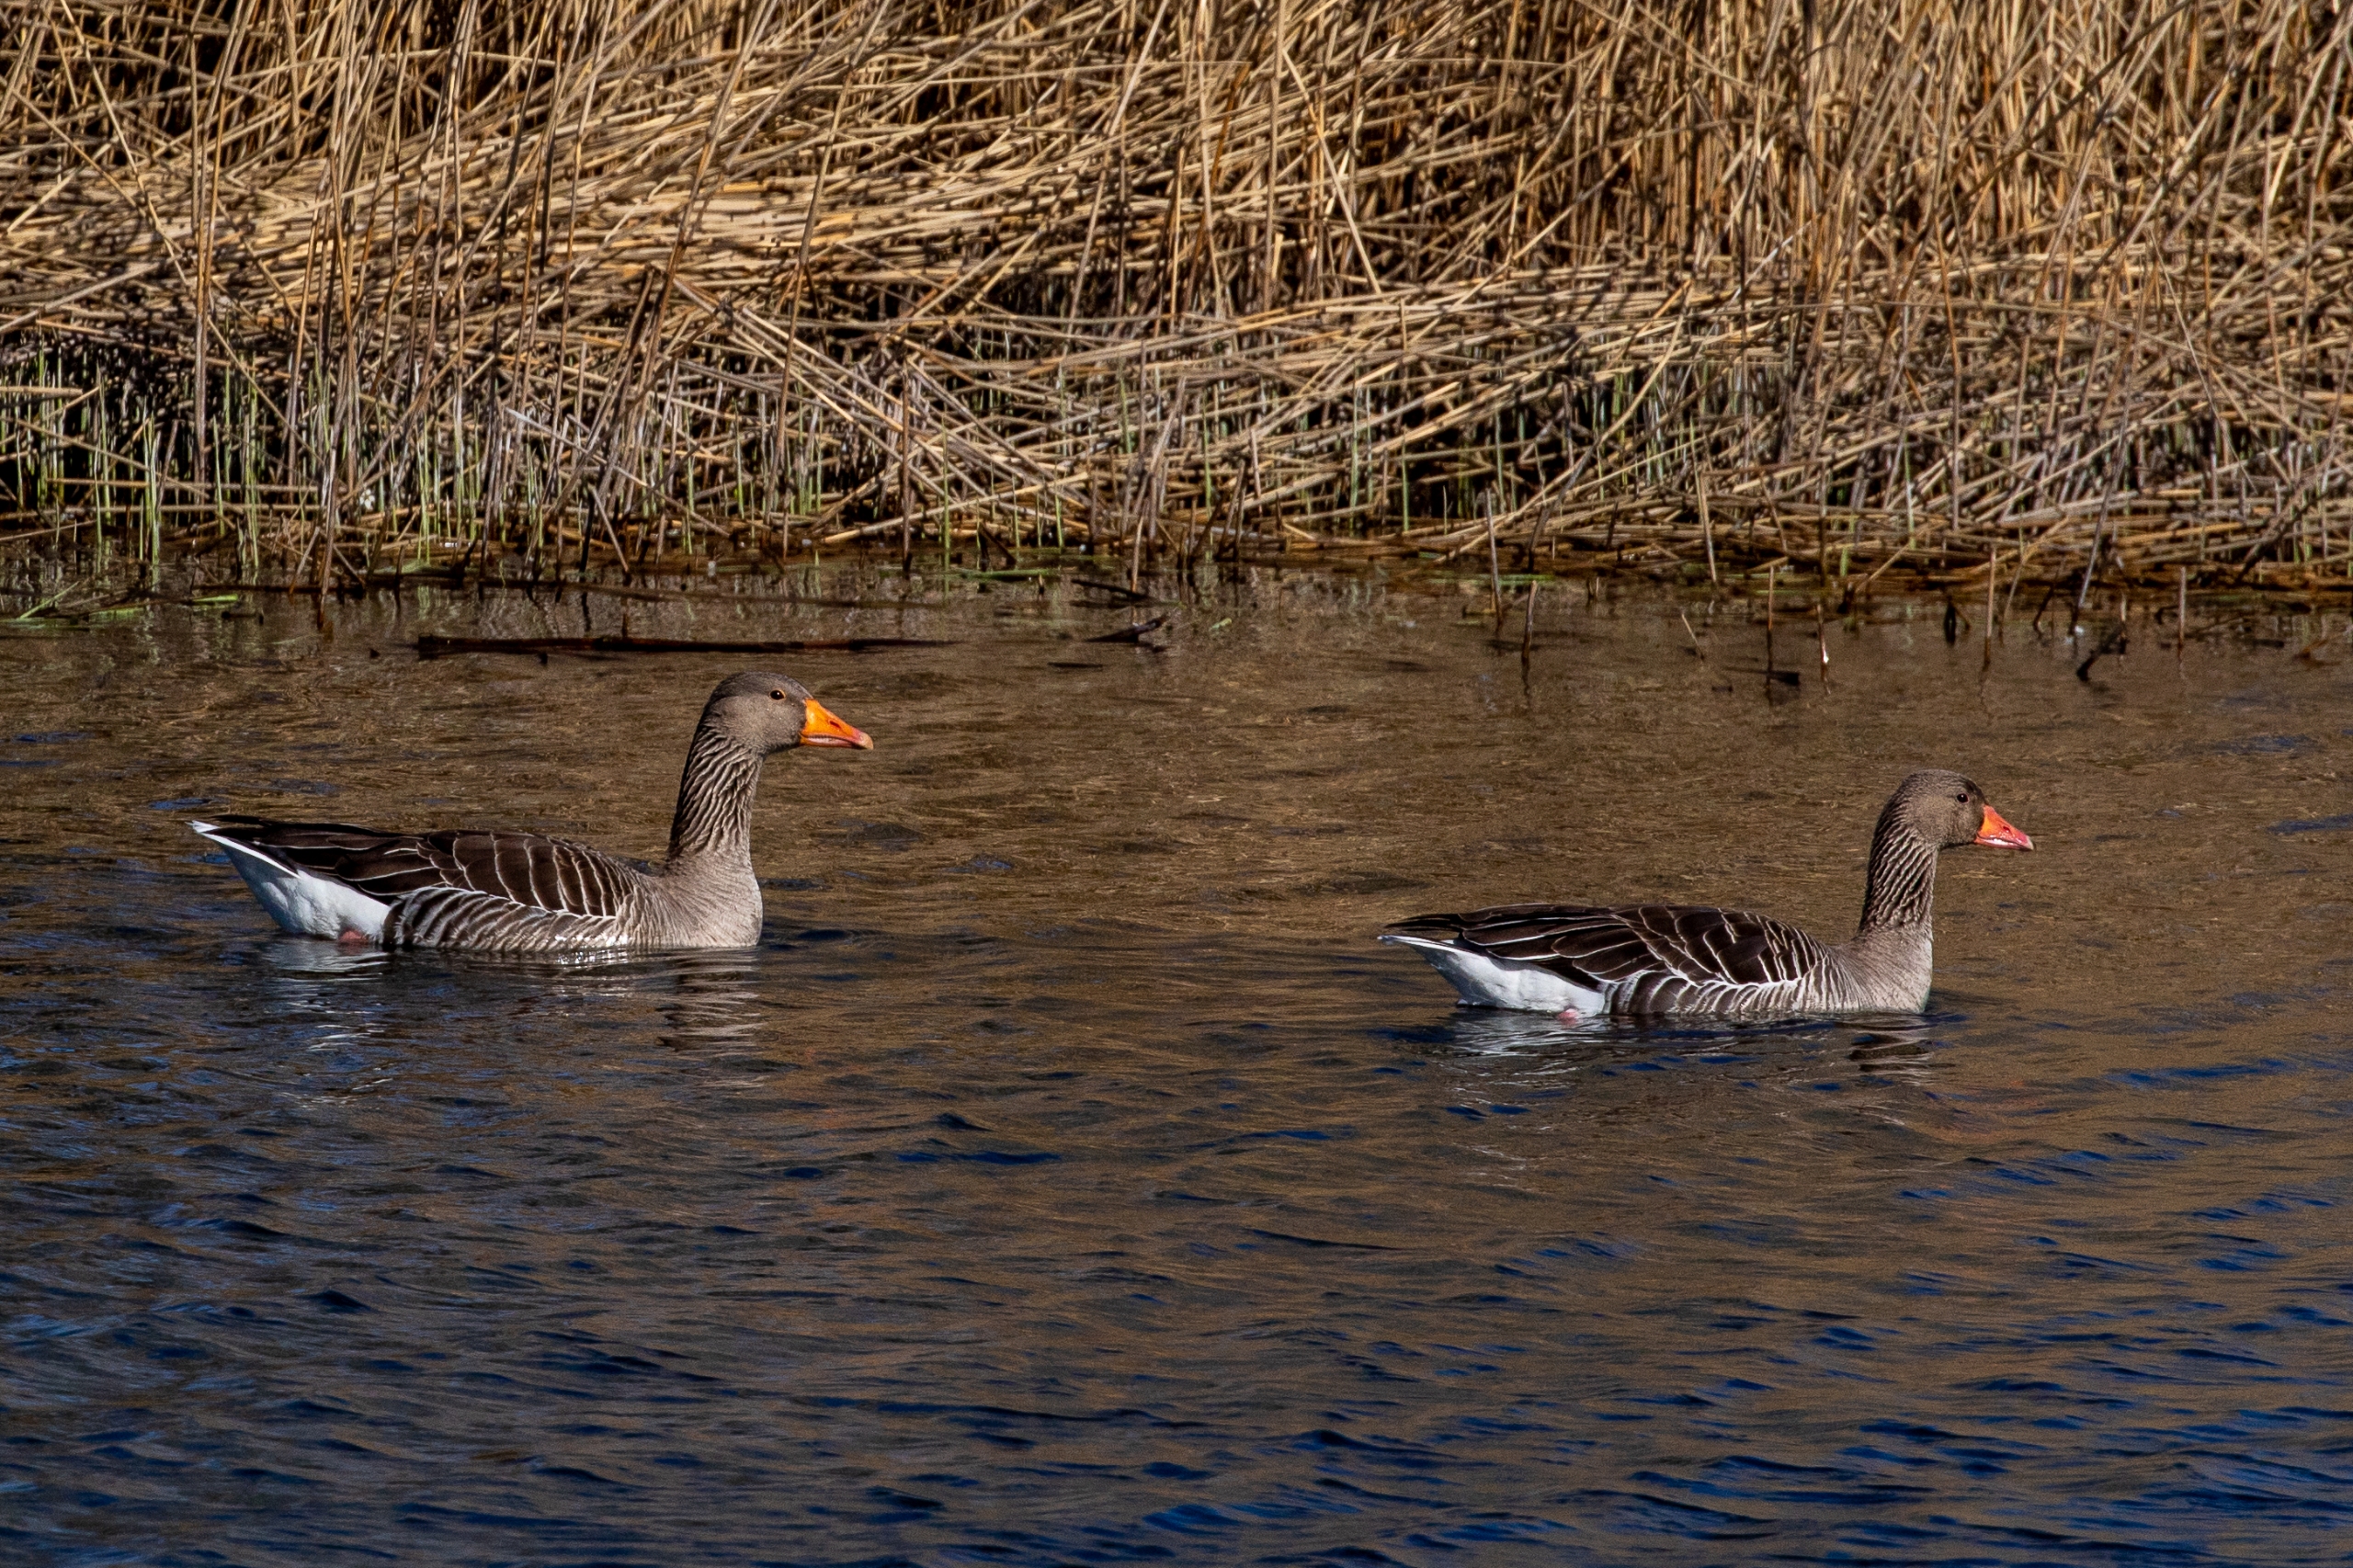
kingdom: Animalia
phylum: Chordata
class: Aves
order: Anseriformes
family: Anatidae
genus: Anser
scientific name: Anser anser
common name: Grågås
